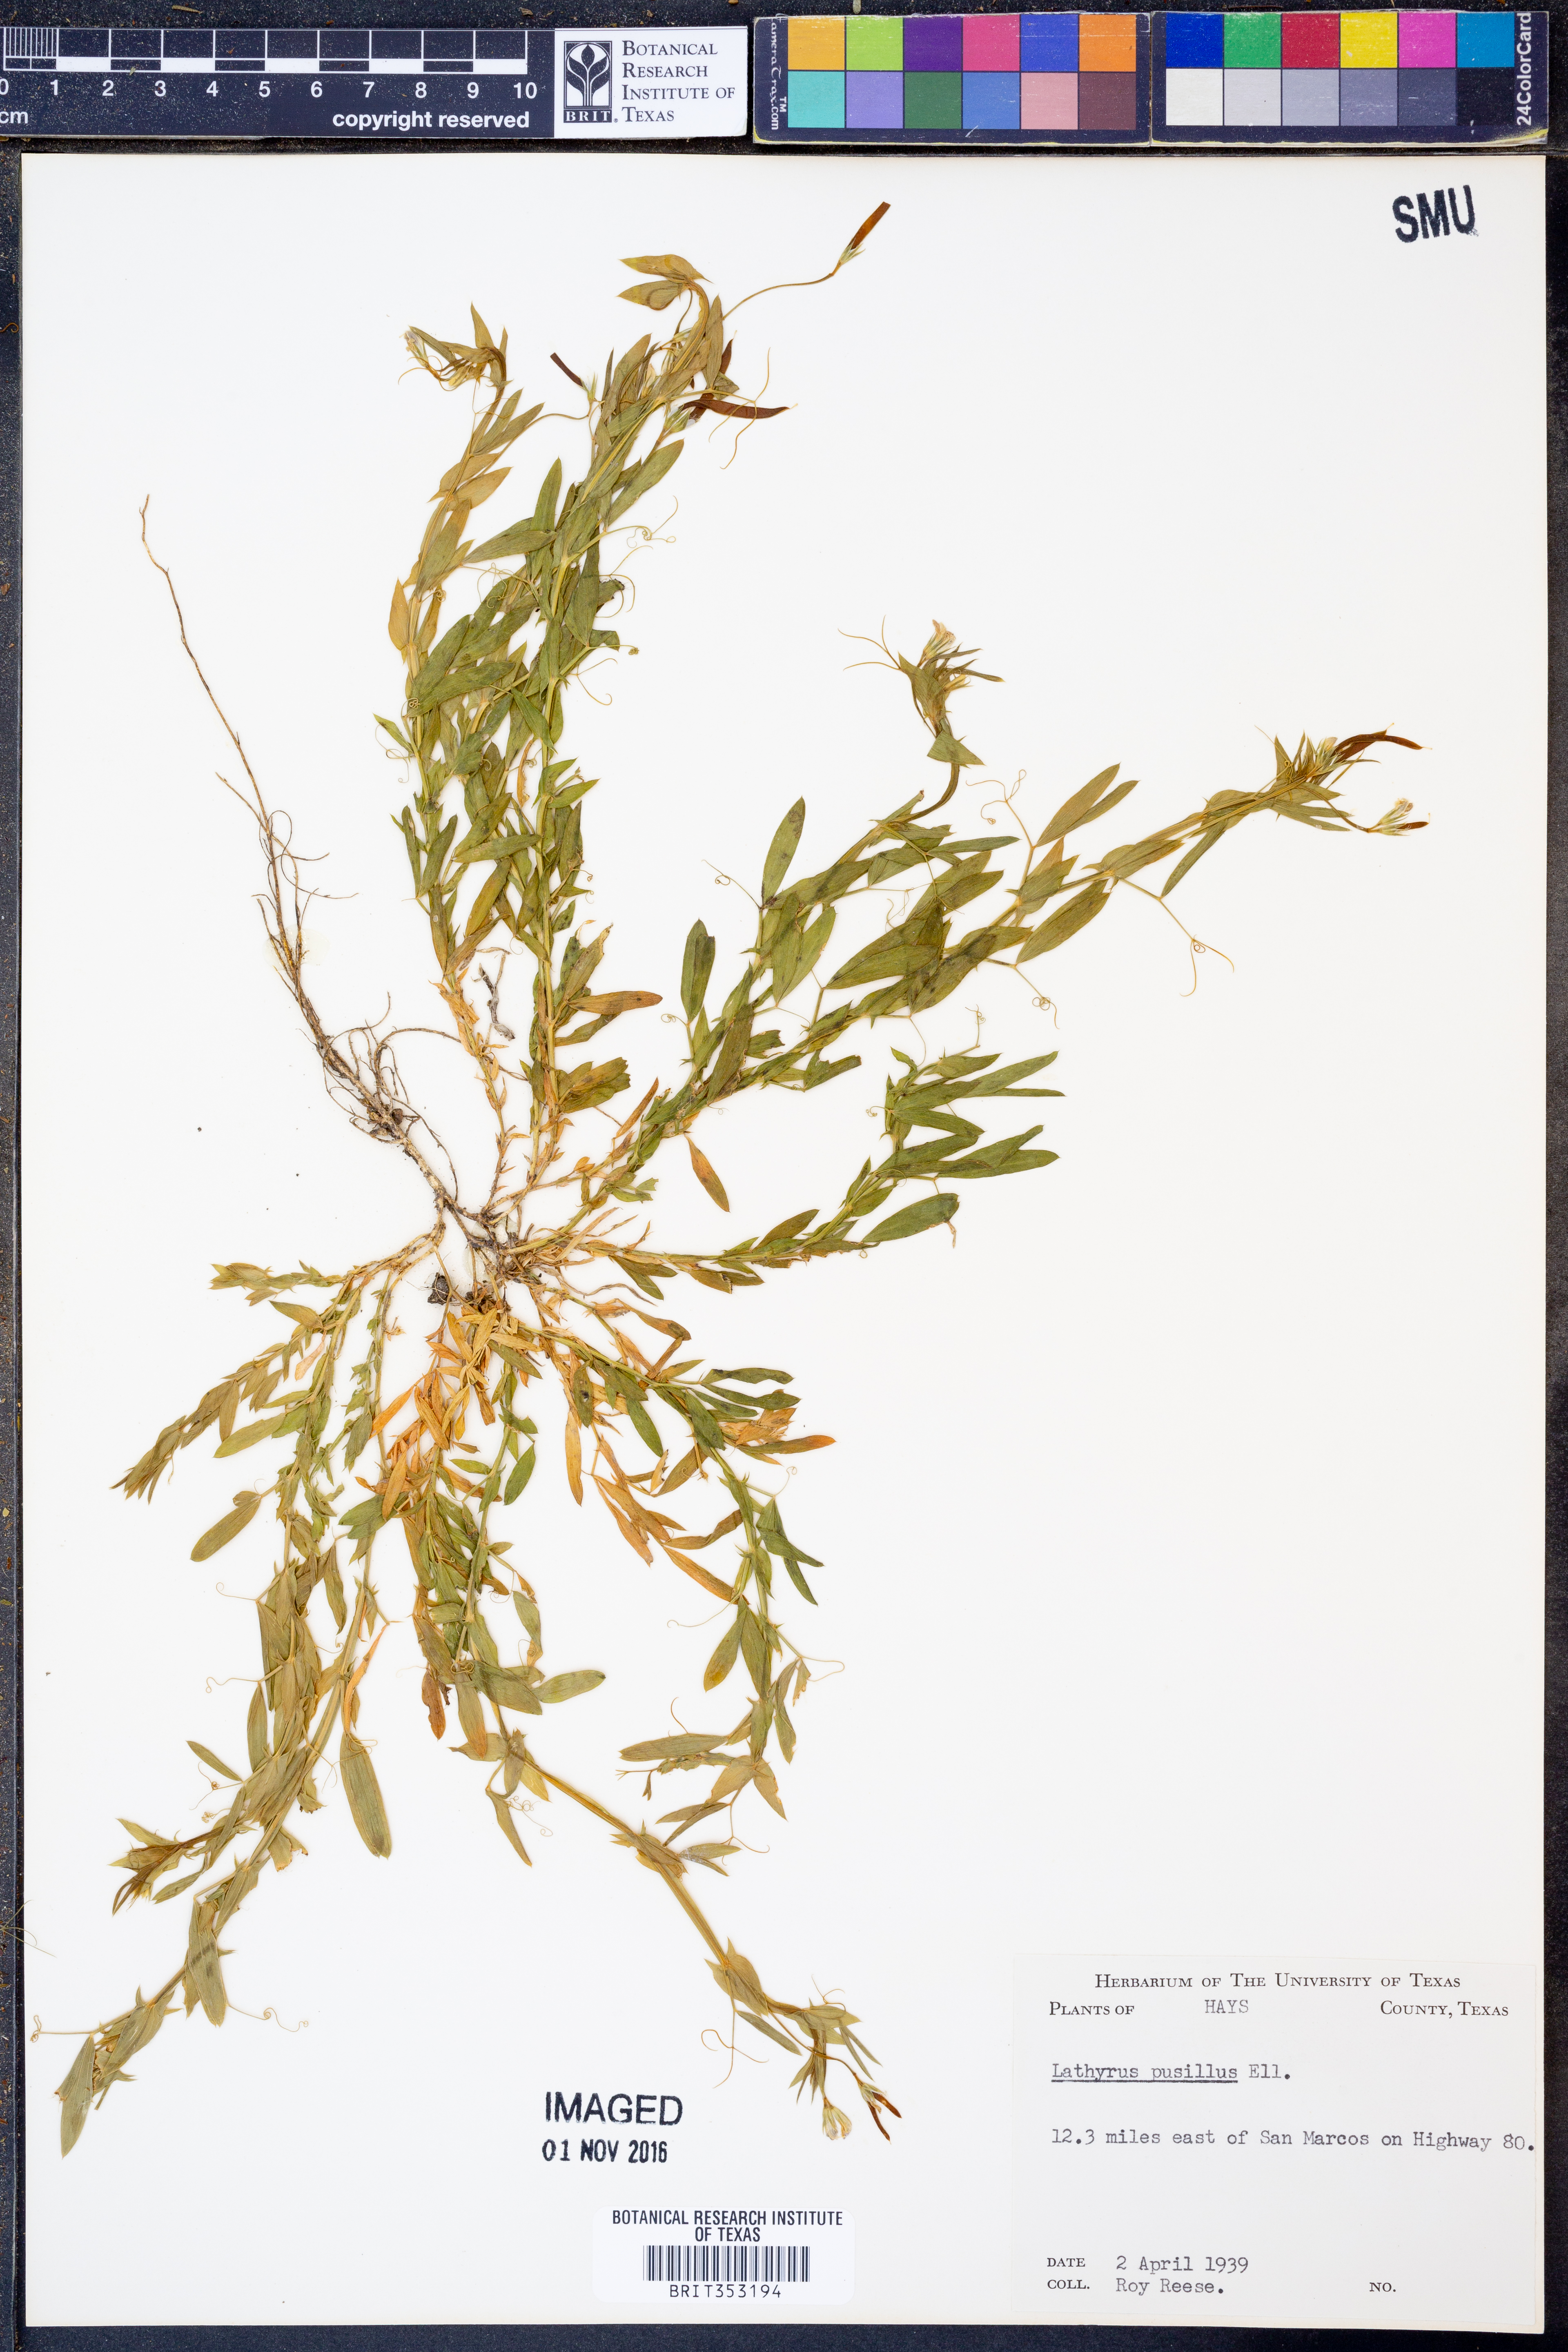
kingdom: Plantae
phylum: Tracheophyta
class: Magnoliopsida
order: Fabales
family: Fabaceae
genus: Lathyrus
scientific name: Lathyrus pusillus
